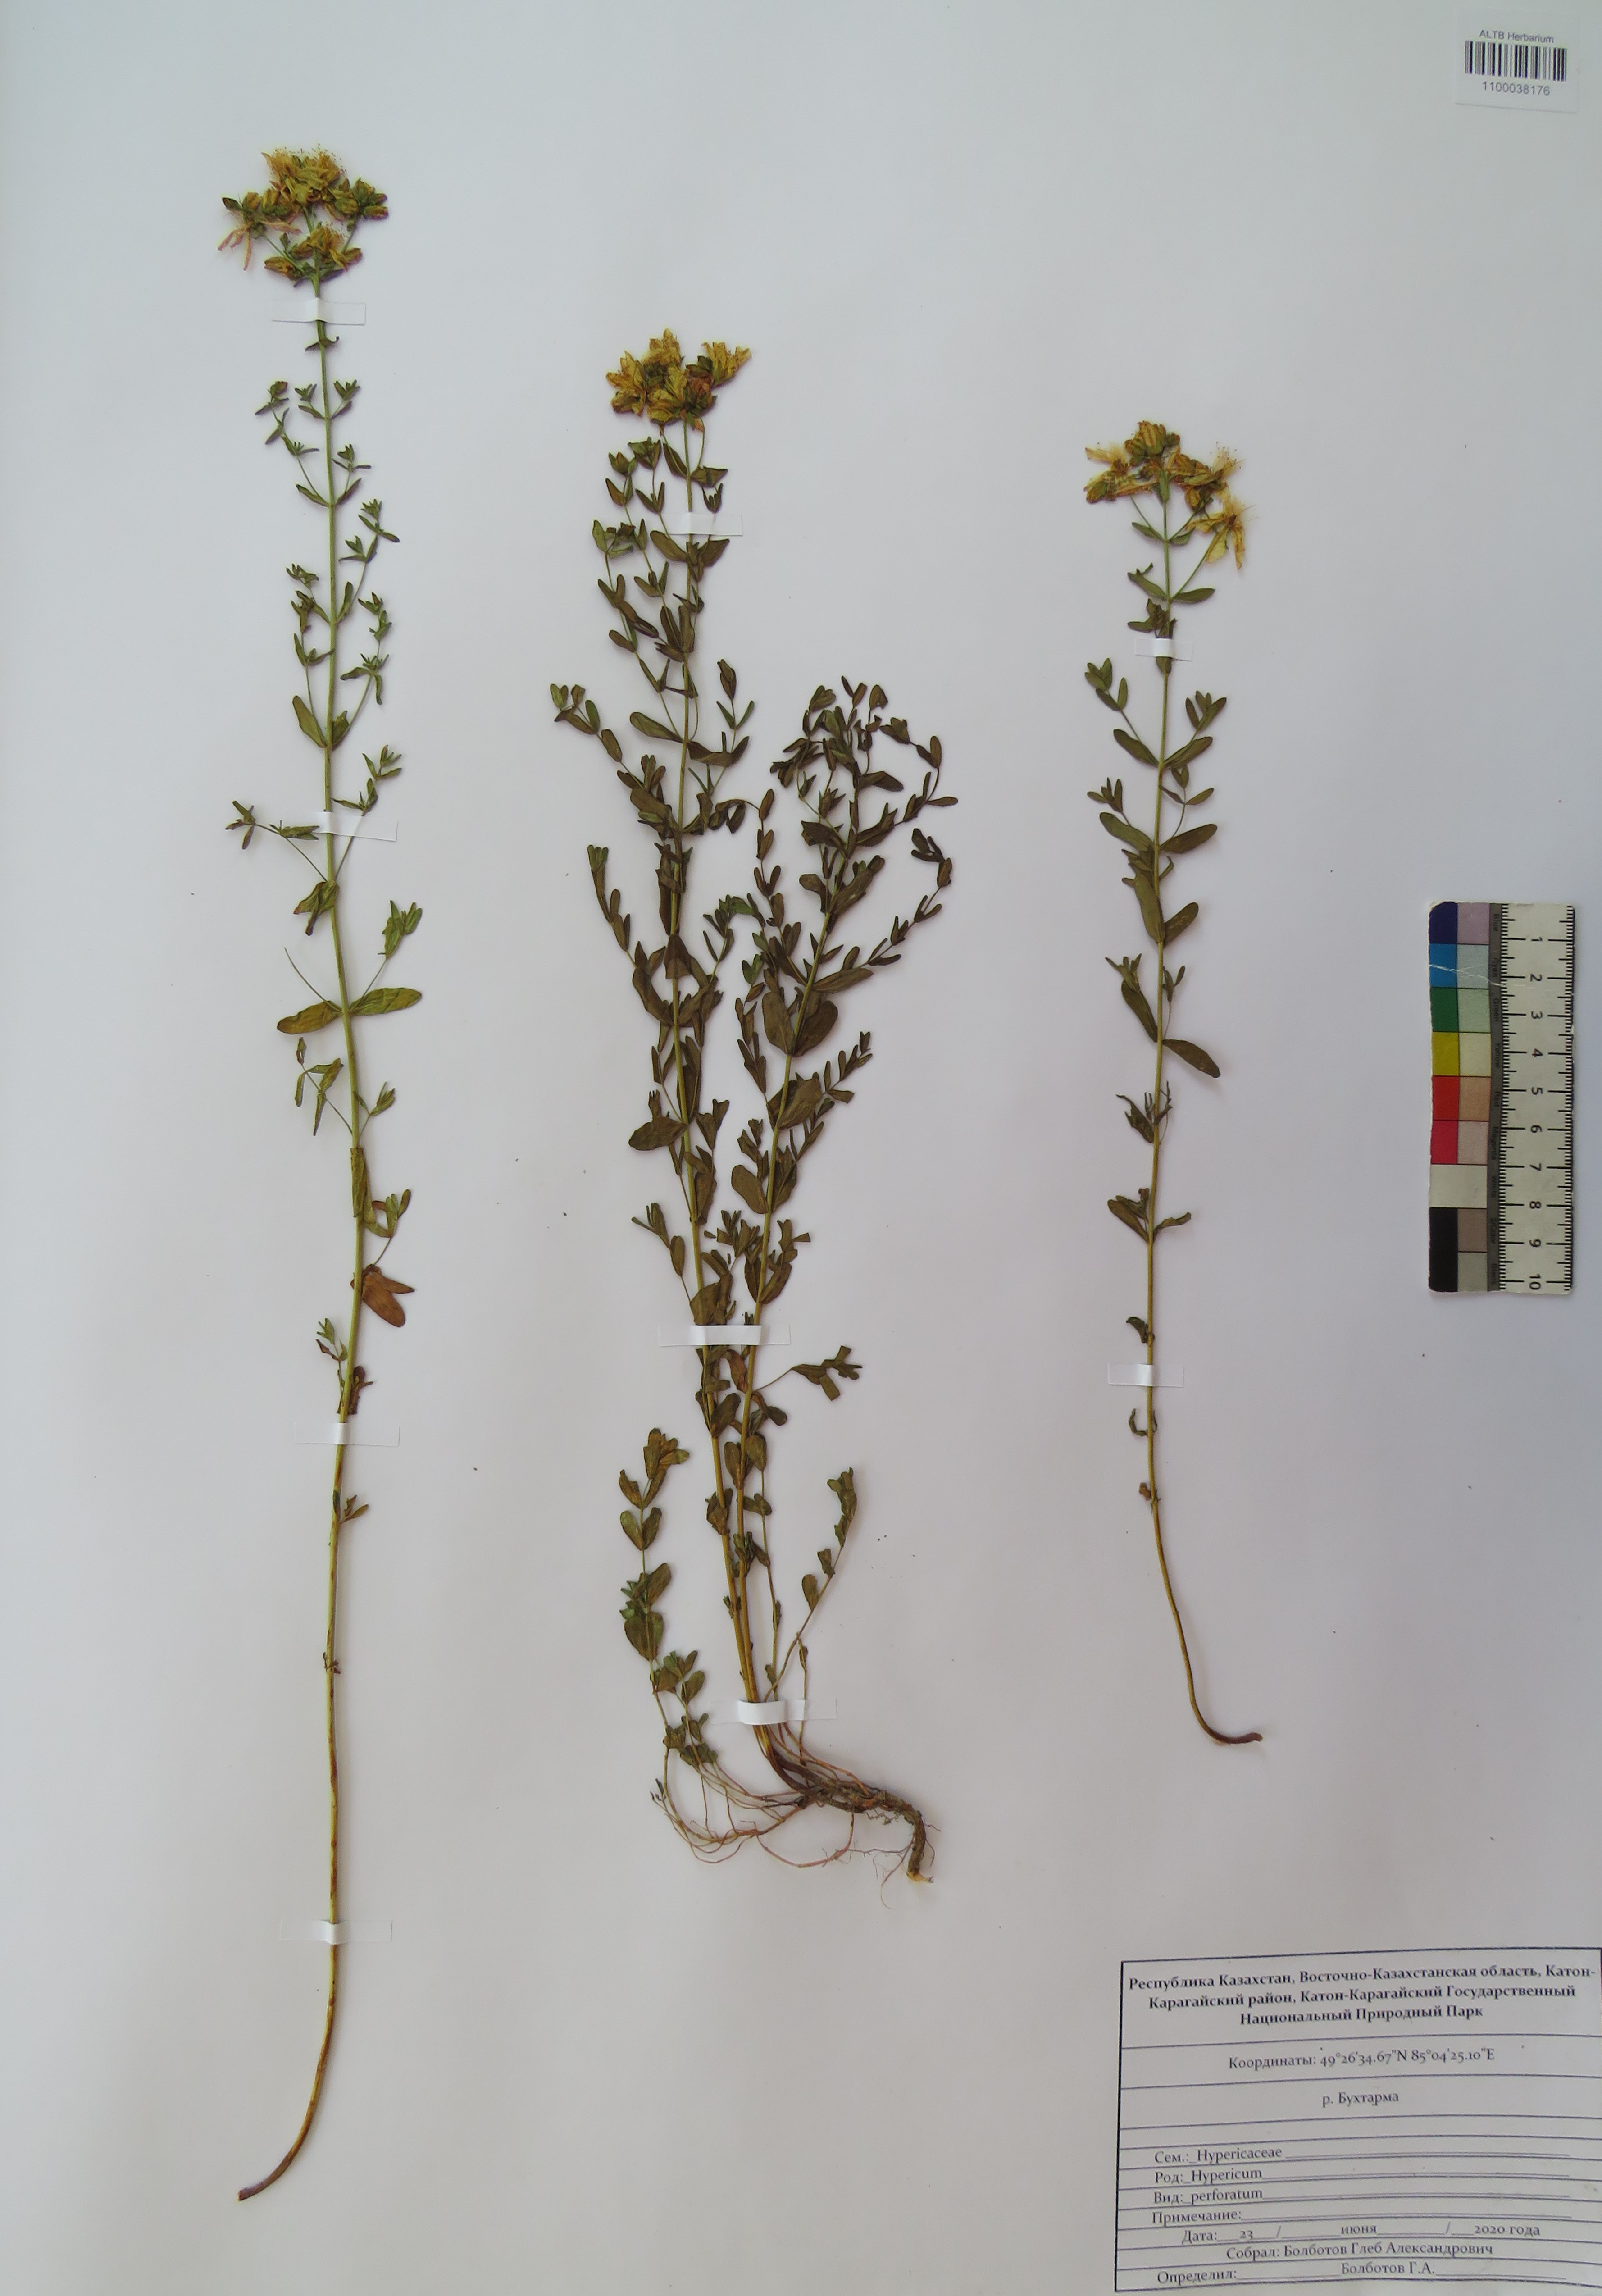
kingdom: Plantae
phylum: Tracheophyta
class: Magnoliopsida
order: Malpighiales
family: Hypericaceae
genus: Hypericum
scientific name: Hypericum perforatum
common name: Common st. johnswort
